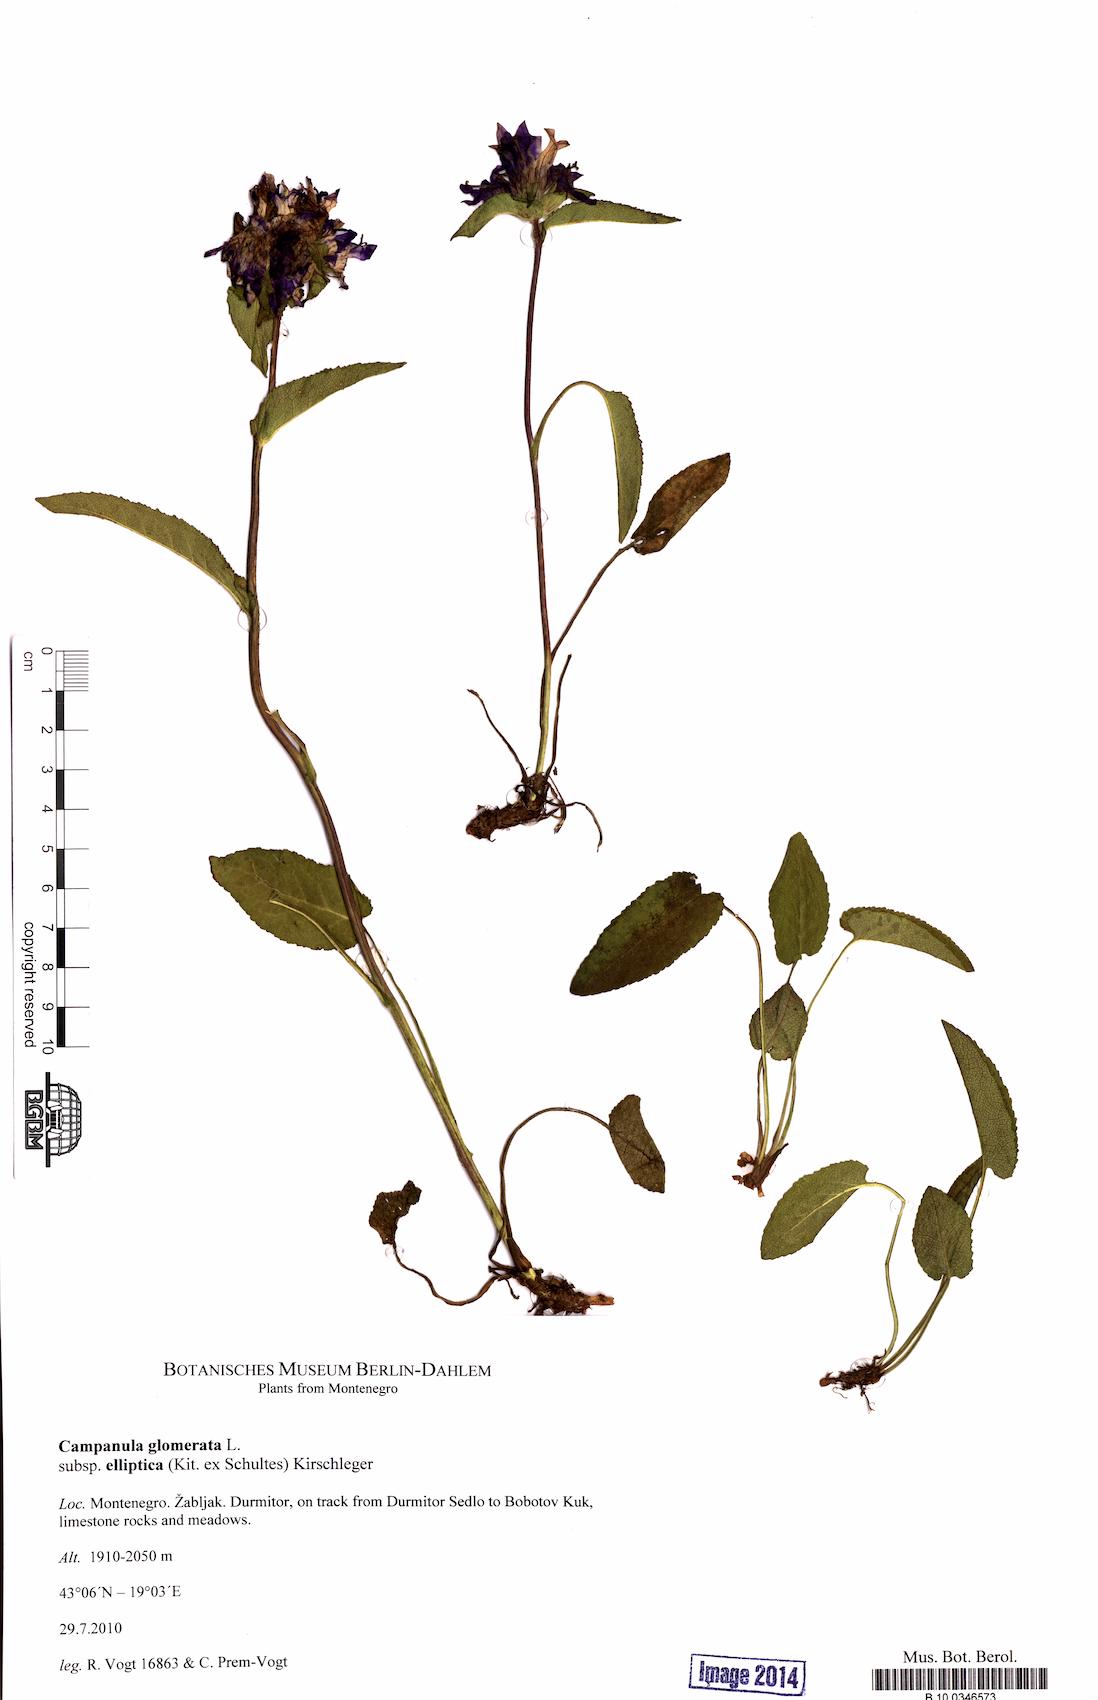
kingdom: Plantae
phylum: Tracheophyta
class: Magnoliopsida
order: Asterales
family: Campanulaceae
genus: Campanula
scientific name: Campanula glomerata
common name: Clustered bellflower
